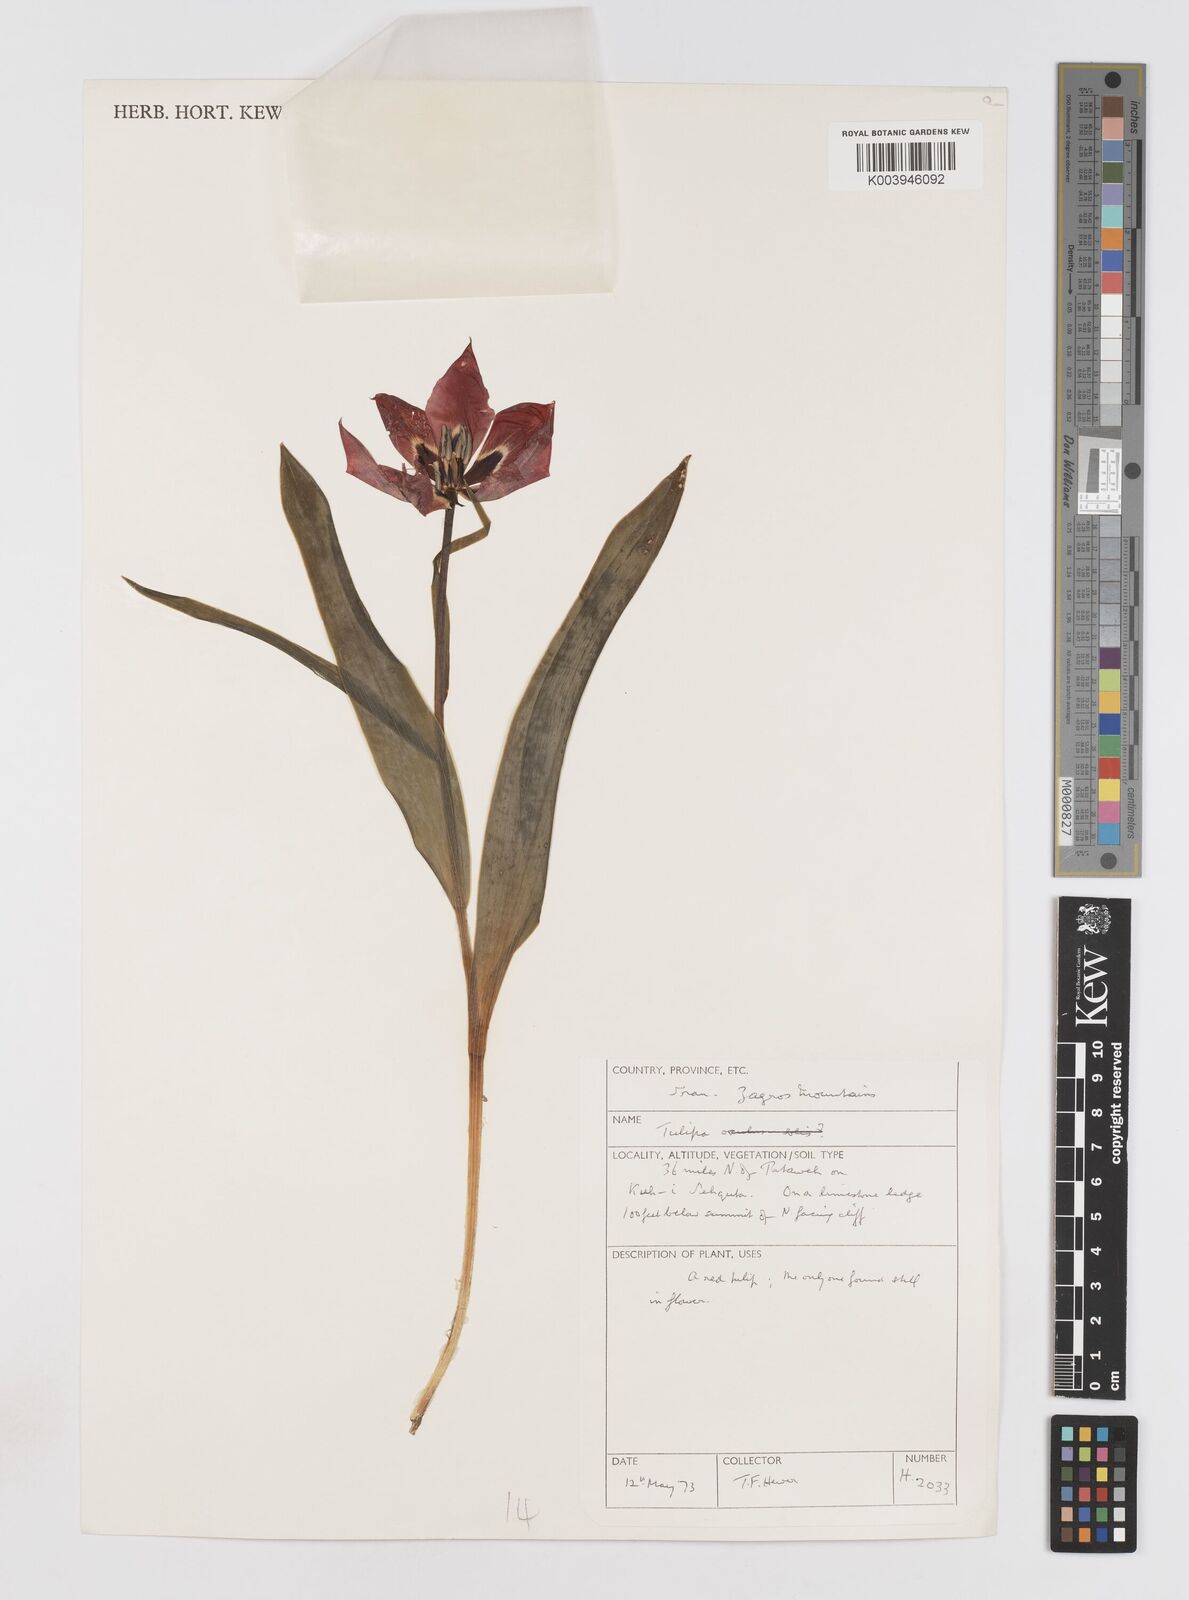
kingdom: Plantae
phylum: Tracheophyta
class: Liliopsida
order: Liliales
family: Liliaceae
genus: Tulipa
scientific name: Tulipa systola
